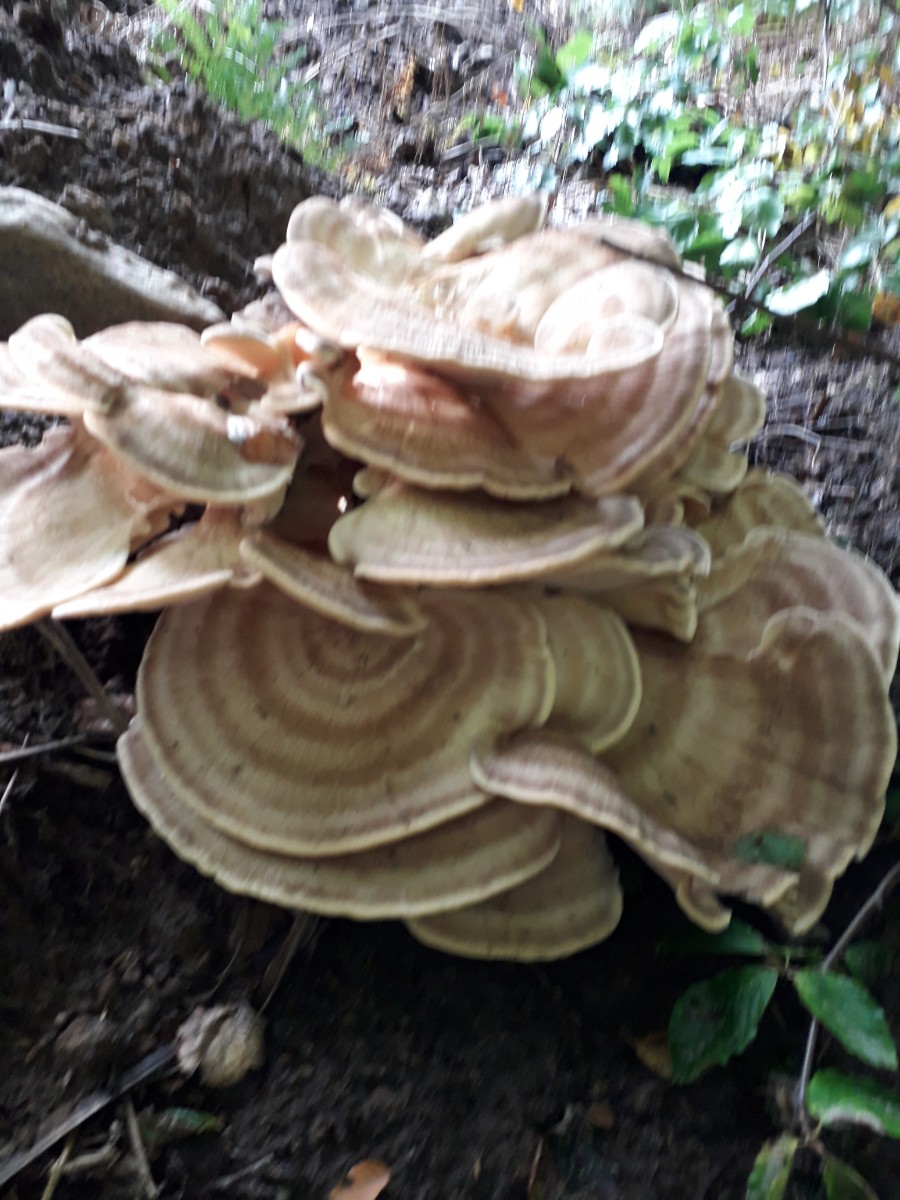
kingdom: Fungi
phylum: Basidiomycota
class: Agaricomycetes
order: Polyporales
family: Polyporaceae
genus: Trametes
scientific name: Trametes versicolor
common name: broget læderporesvamp
